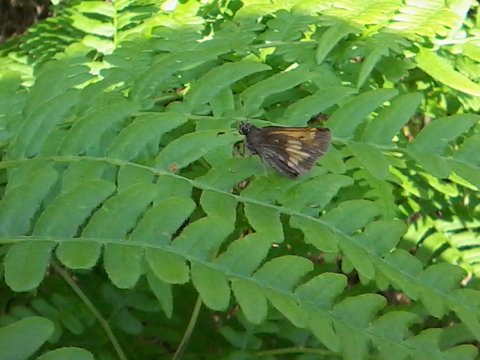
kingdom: Animalia
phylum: Arthropoda
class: Insecta
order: Lepidoptera
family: Hesperiidae
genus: Lon
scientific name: Lon hobomok
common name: Hobomok Skipper
